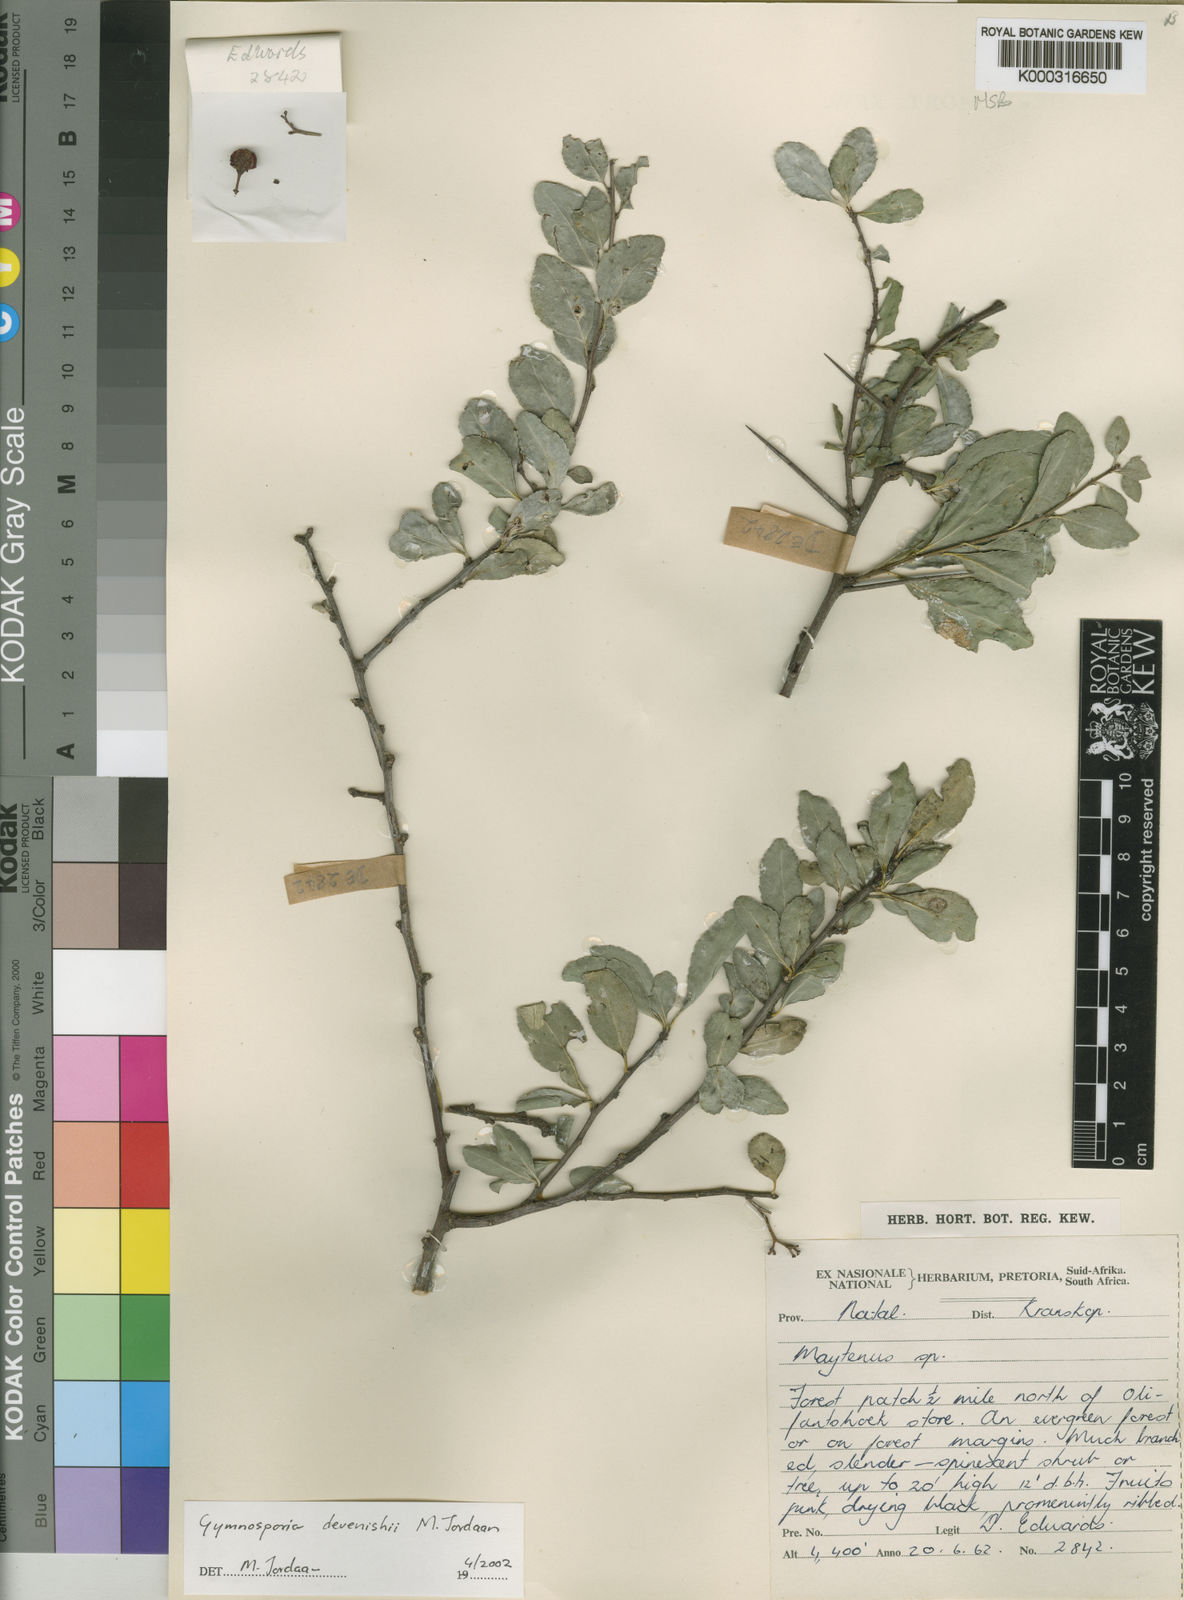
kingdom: Plantae
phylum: Tracheophyta
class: Magnoliopsida
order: Celastrales
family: Celastraceae
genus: Gymnosporia
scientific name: Gymnosporia devenishii
